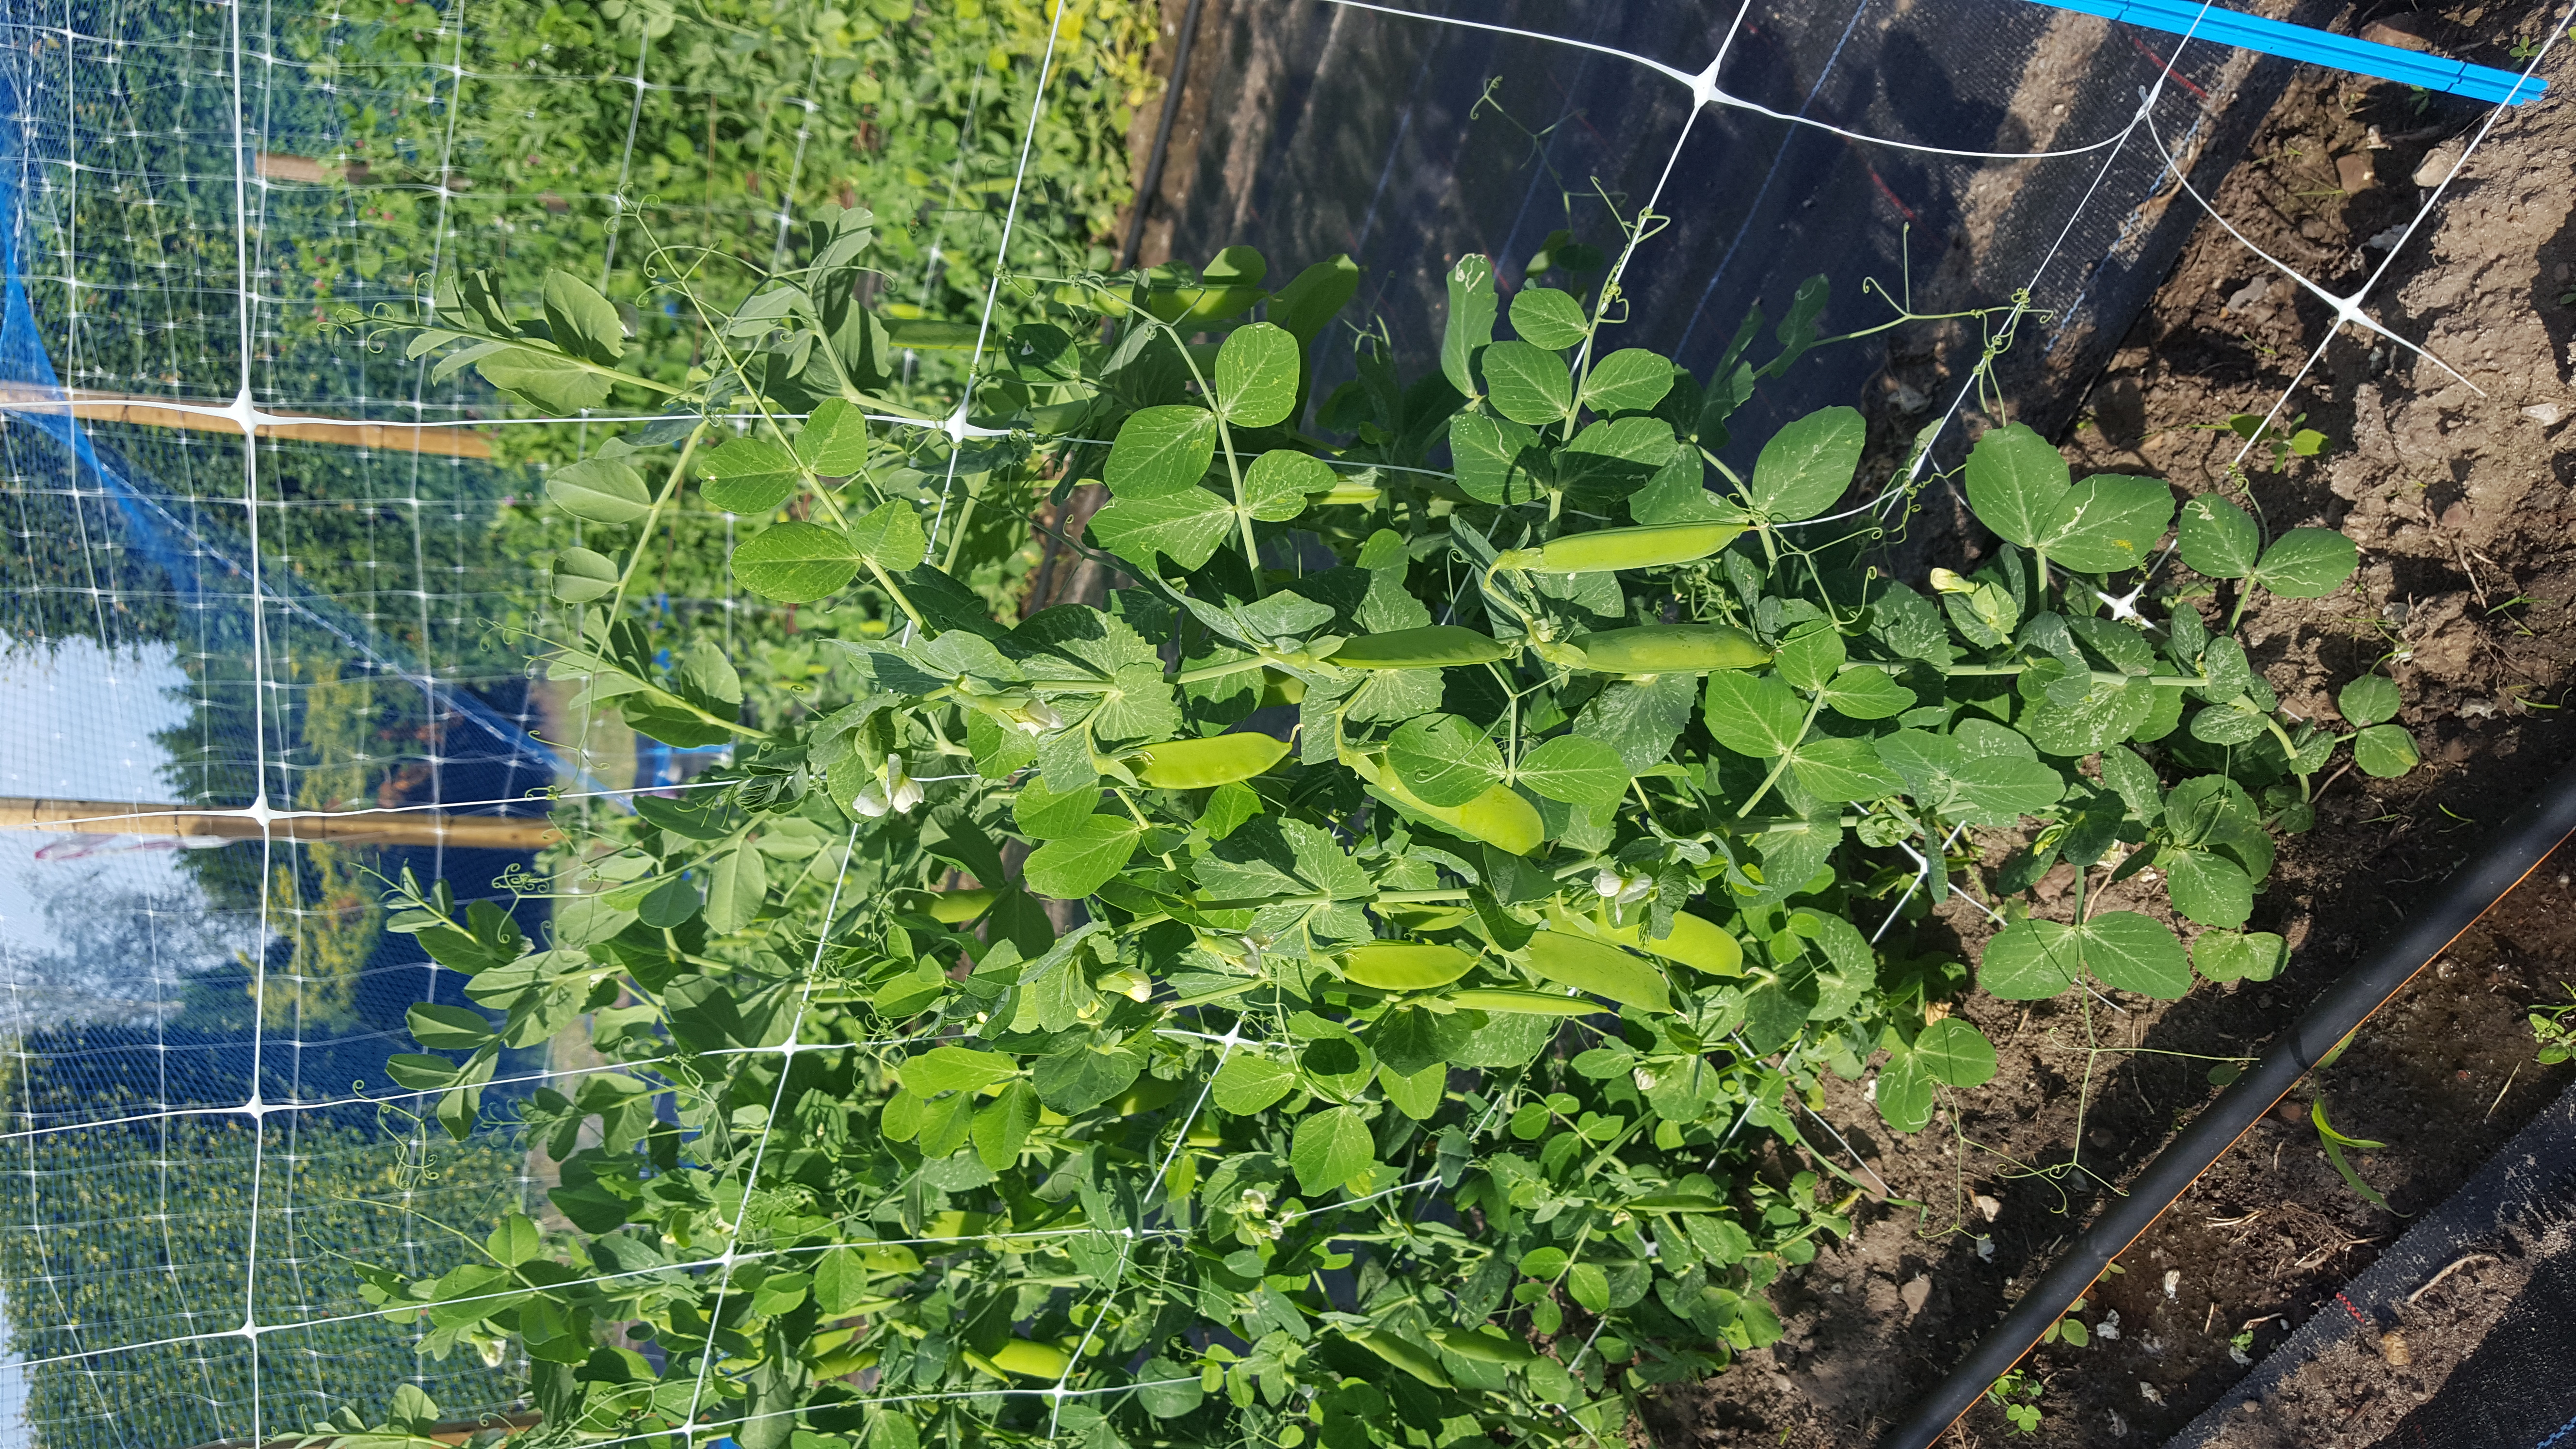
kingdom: Plantae
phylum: Tracheophyta
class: Magnoliopsida
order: Fabales
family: Fabaceae
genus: Lathyrus
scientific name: Lathyrus oleraceus
